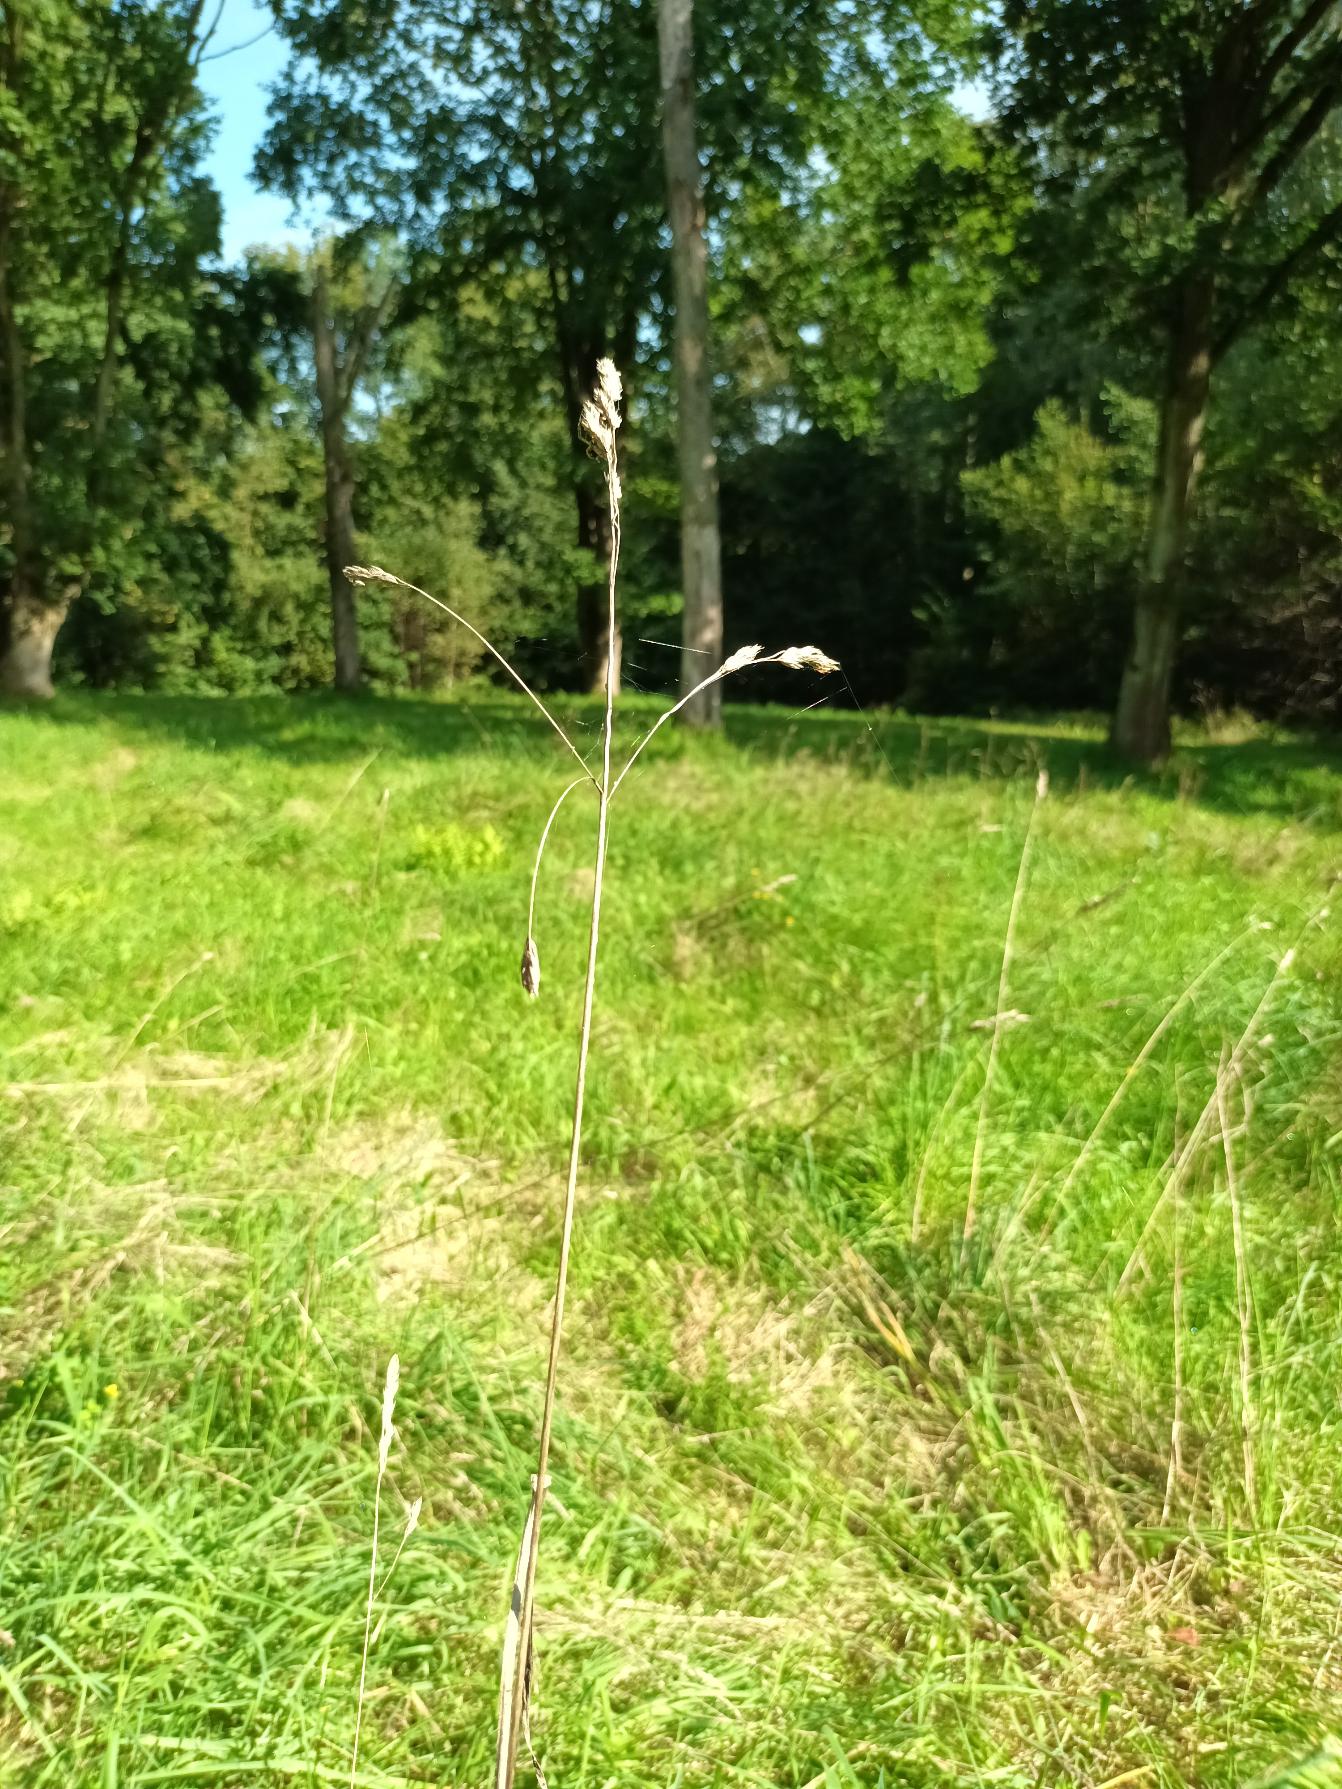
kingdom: Plantae
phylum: Tracheophyta
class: Liliopsida
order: Poales
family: Poaceae
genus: Dactylis
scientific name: Dactylis glomerata
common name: Almindelig hundegræs
